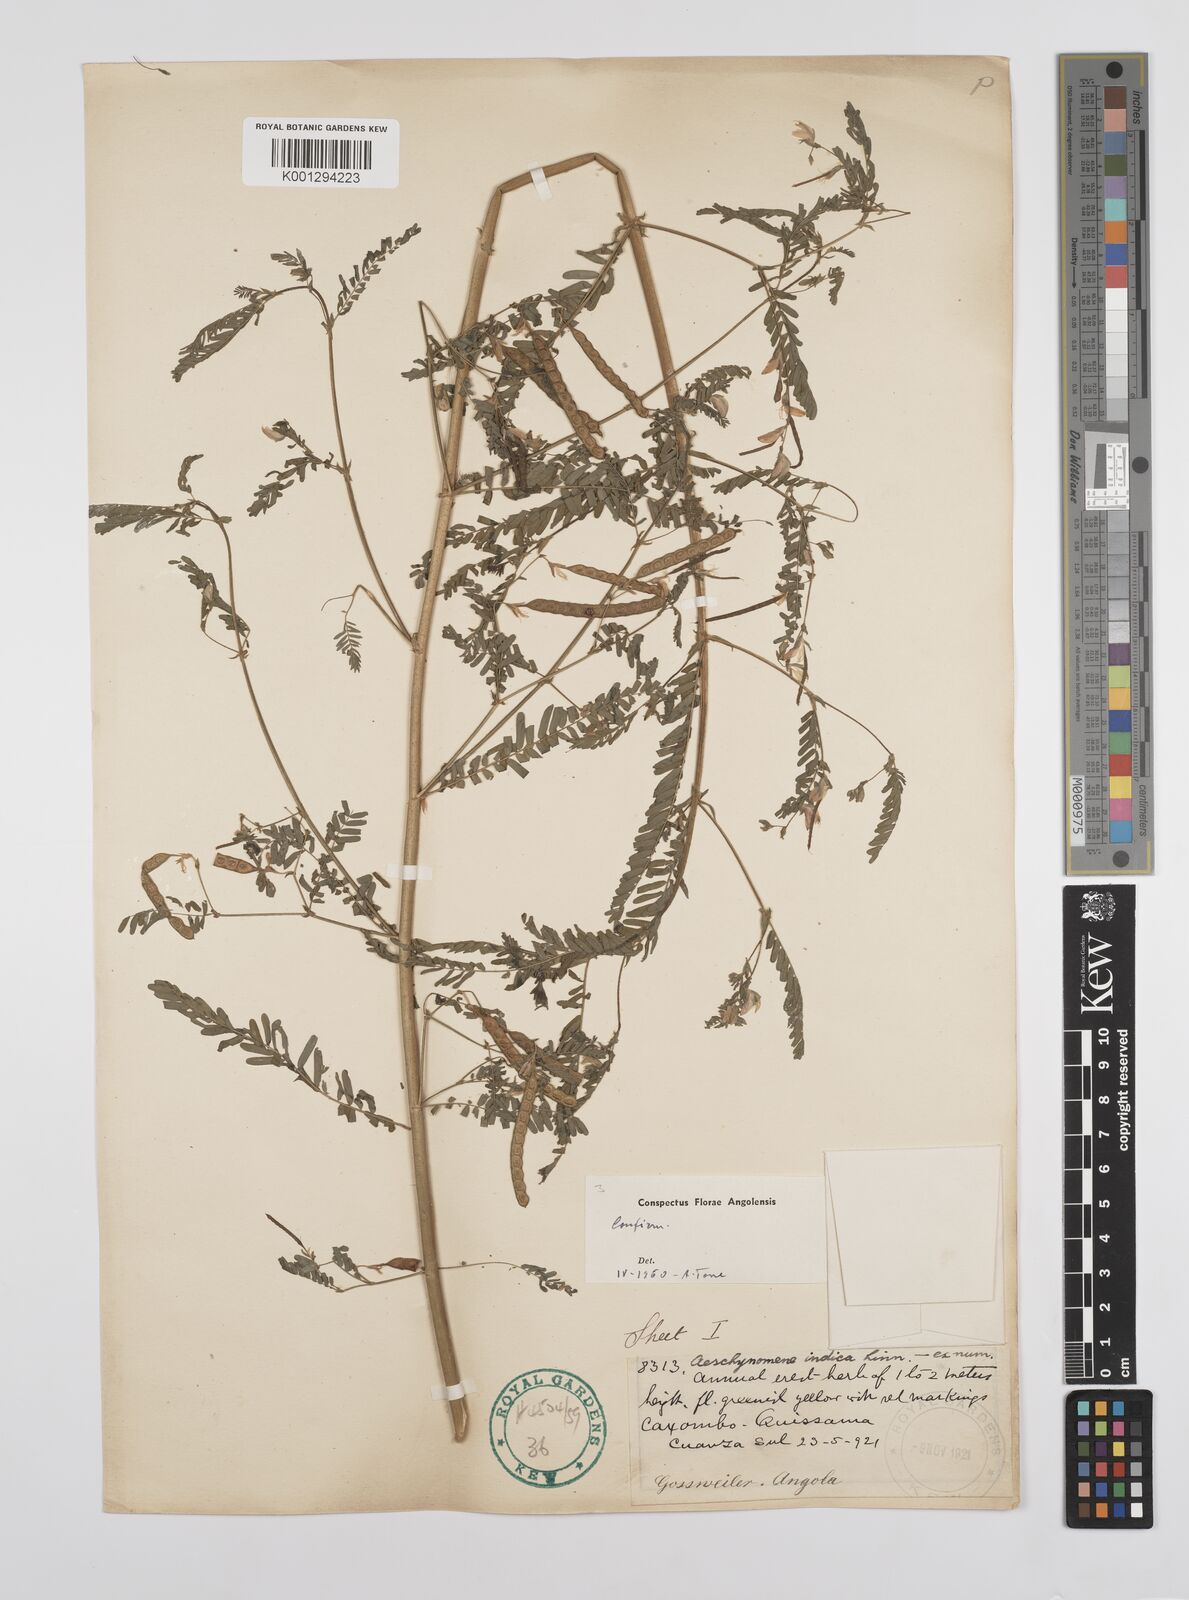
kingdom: Plantae
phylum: Tracheophyta
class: Magnoliopsida
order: Fabales
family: Fabaceae
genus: Aeschynomene
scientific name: Aeschynomene indica
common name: Indian jointvetch
